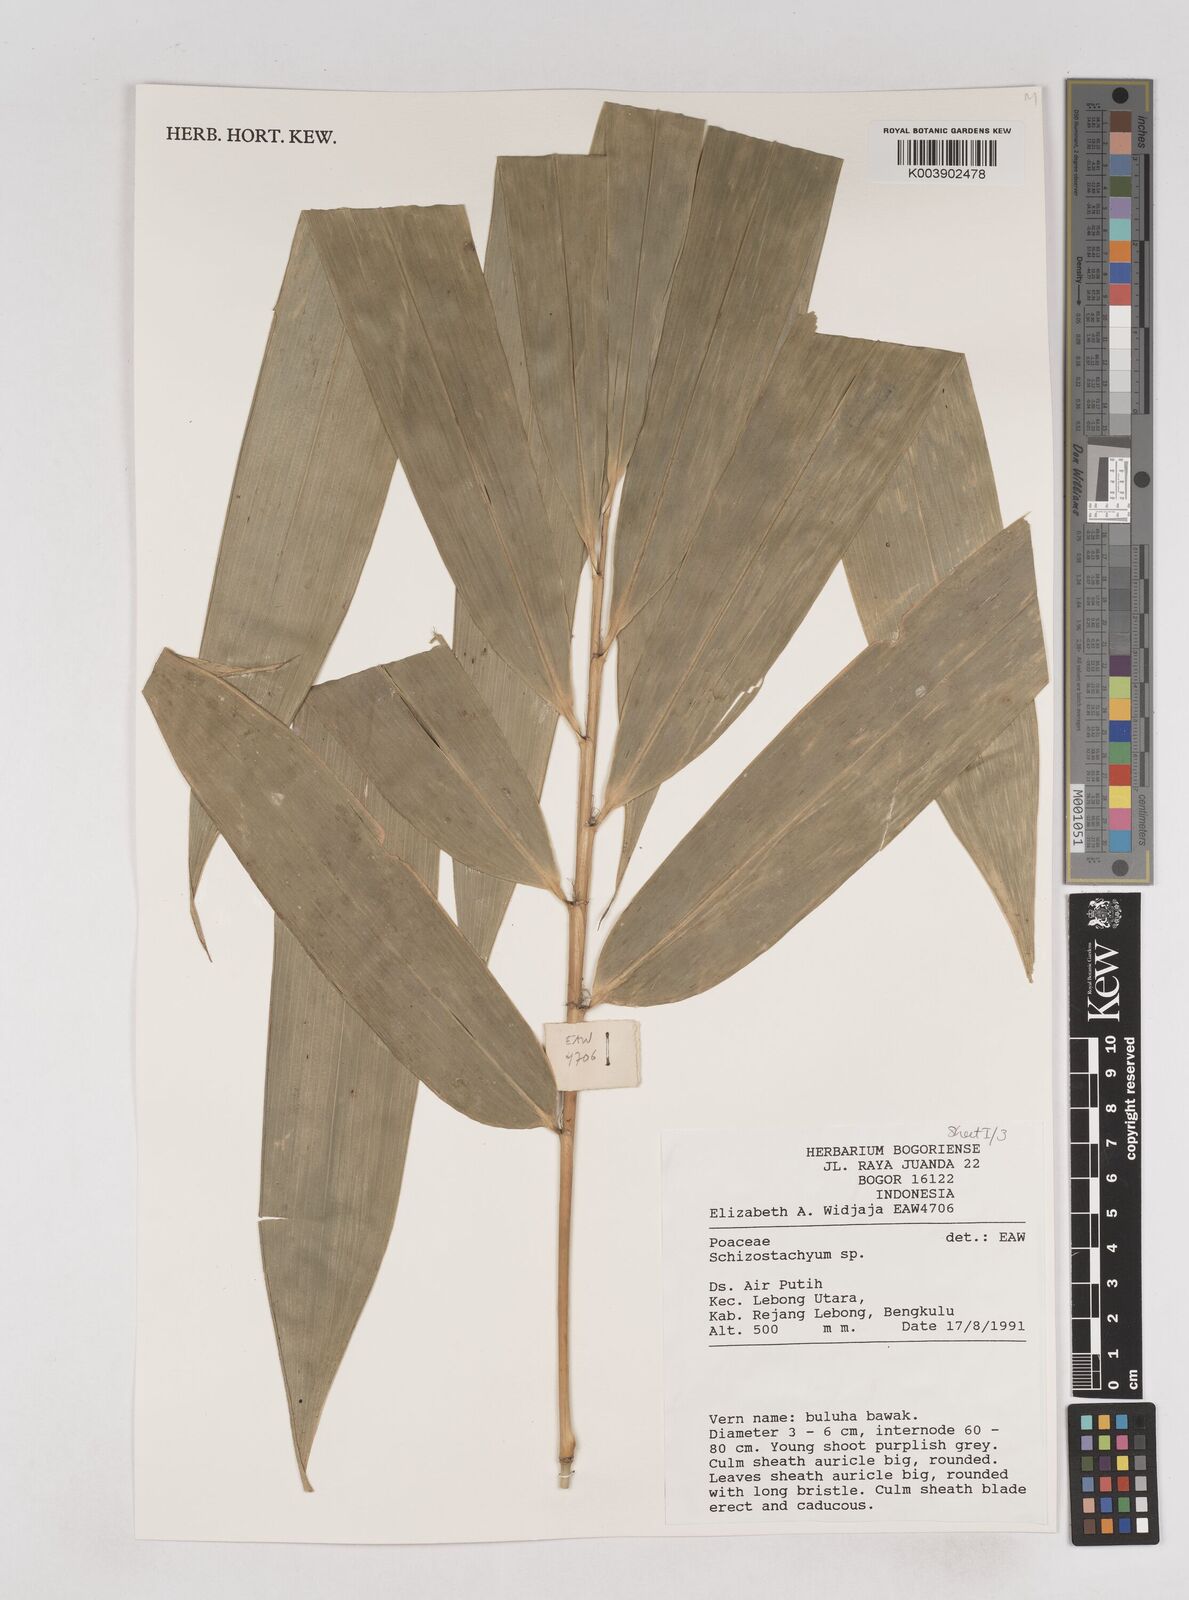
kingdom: Plantae
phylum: Tracheophyta
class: Liliopsida
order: Poales
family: Poaceae
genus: Schizostachyum
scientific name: Schizostachyum
